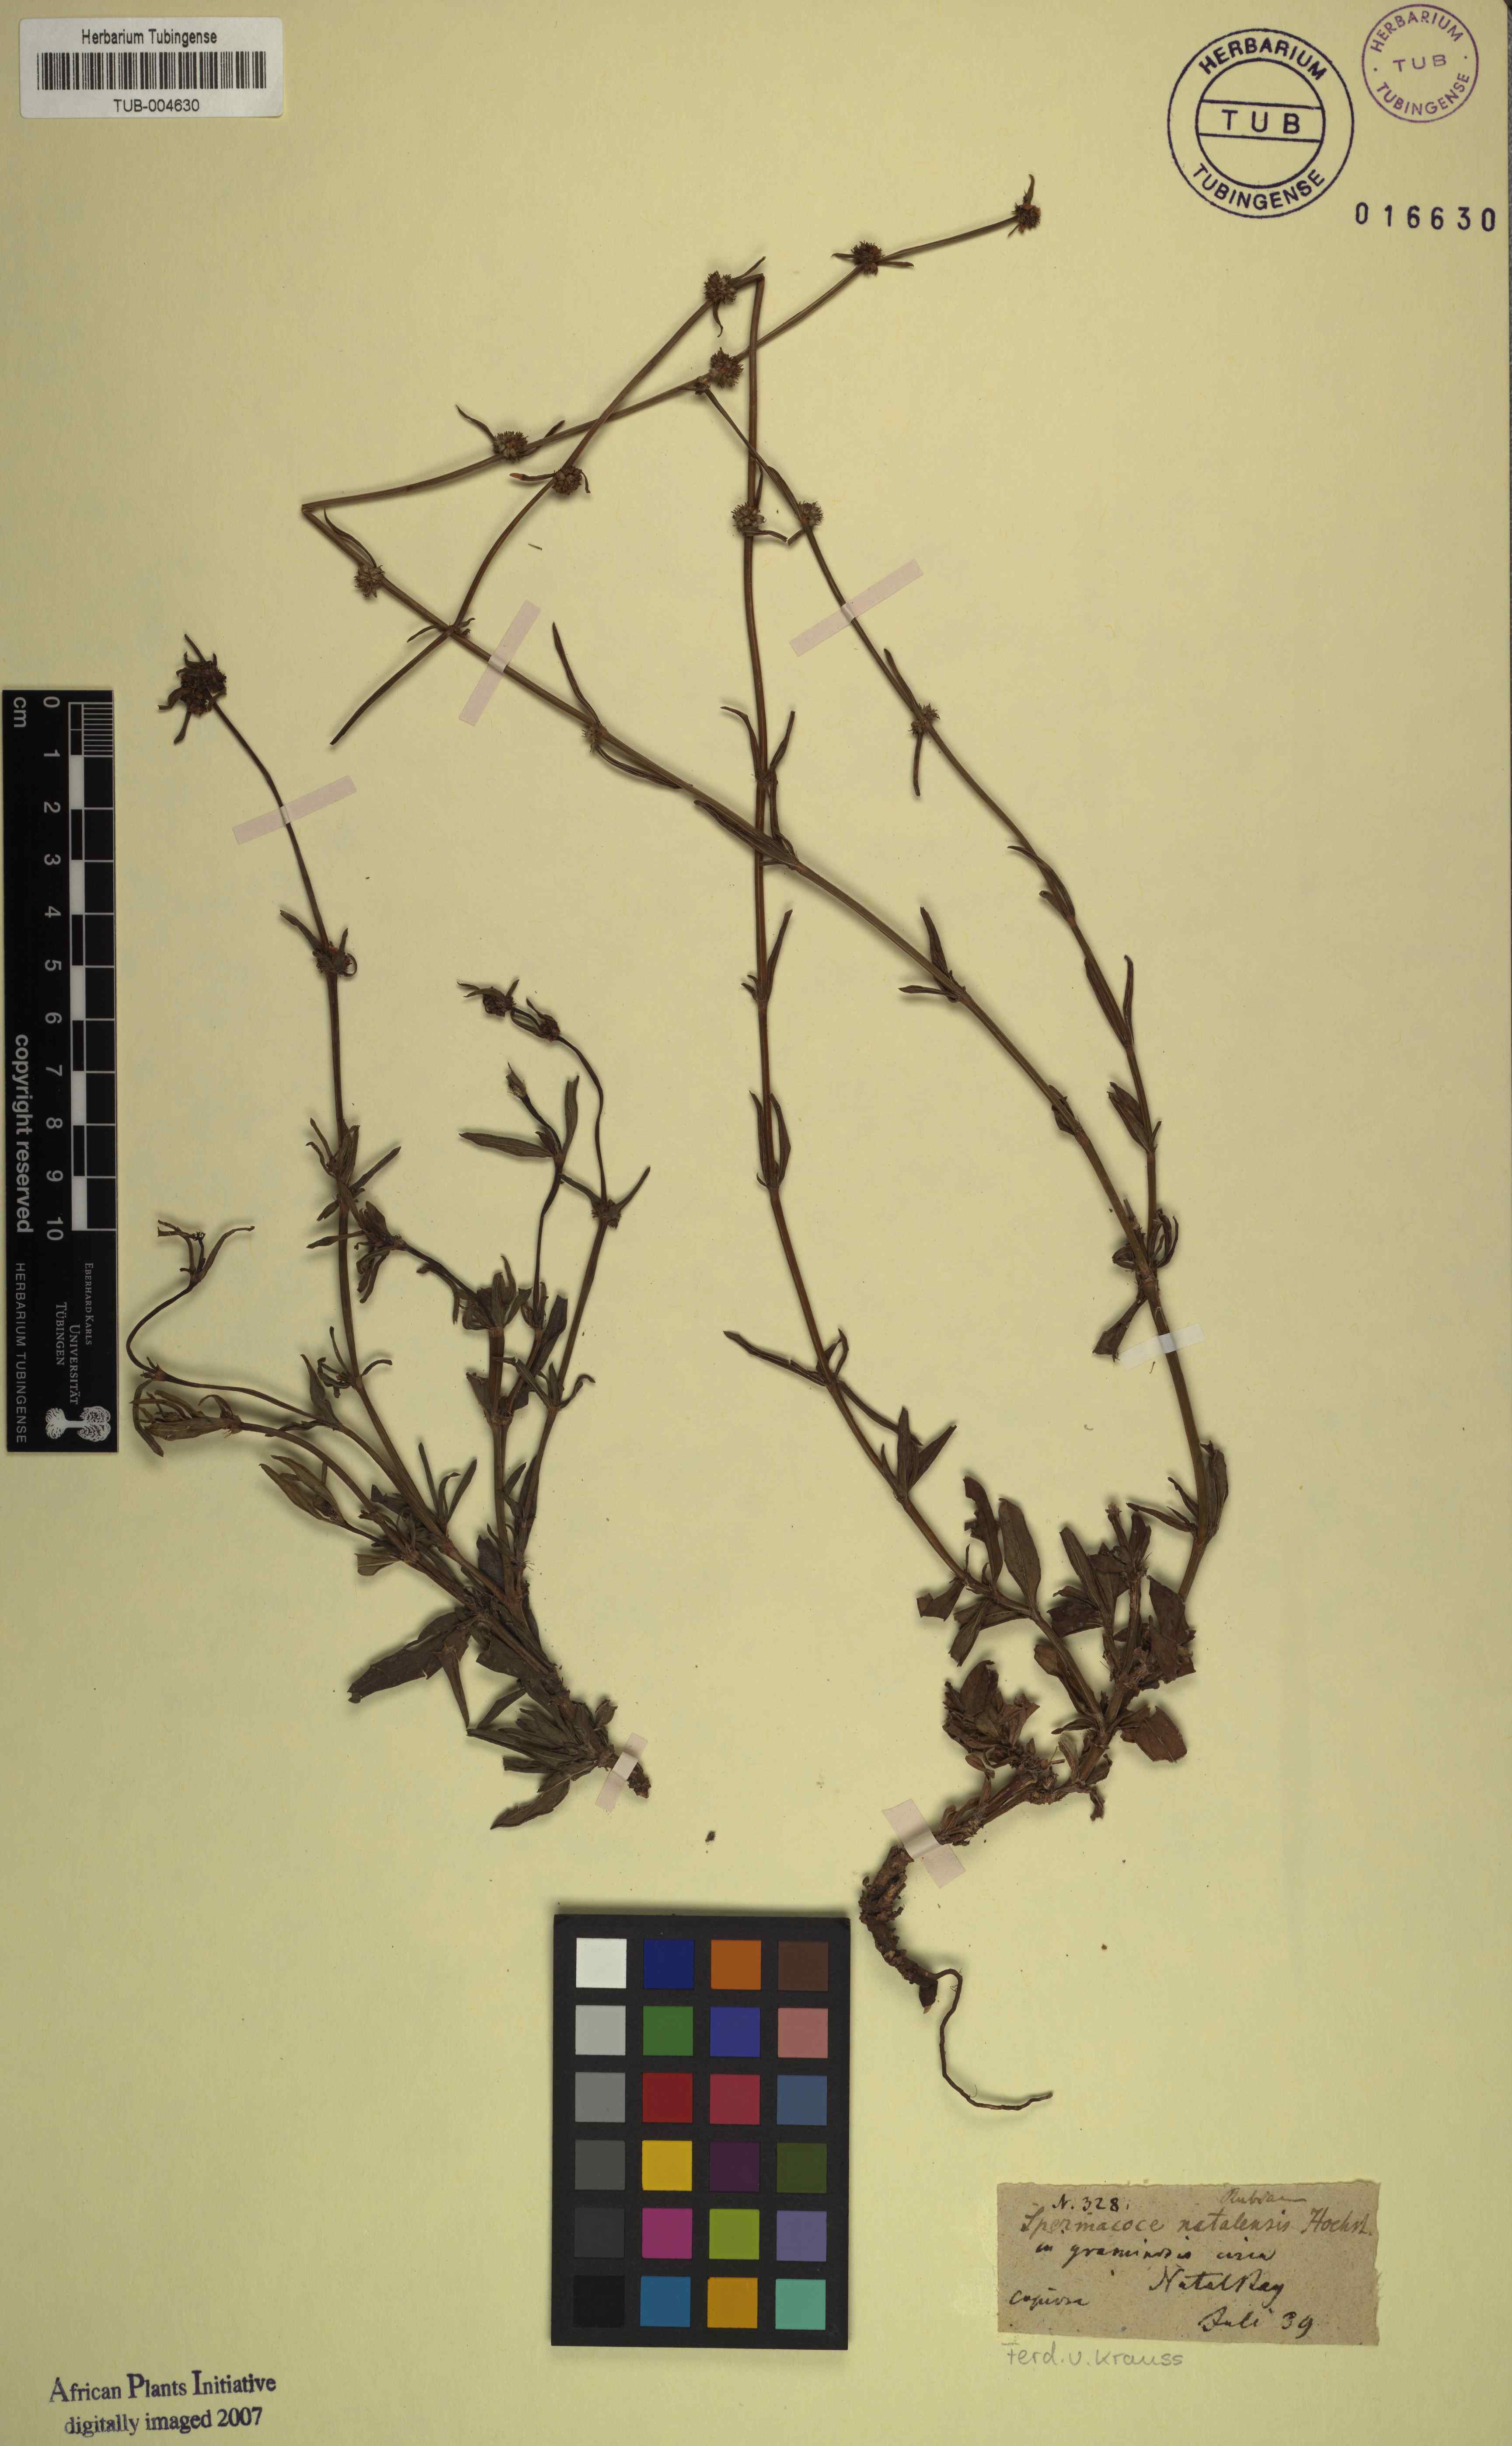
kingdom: Plantae
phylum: Tracheophyta
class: Magnoliopsida
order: Gentianales
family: Rubiaceae
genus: Spermacoce
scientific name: Spermacoce natalensis
